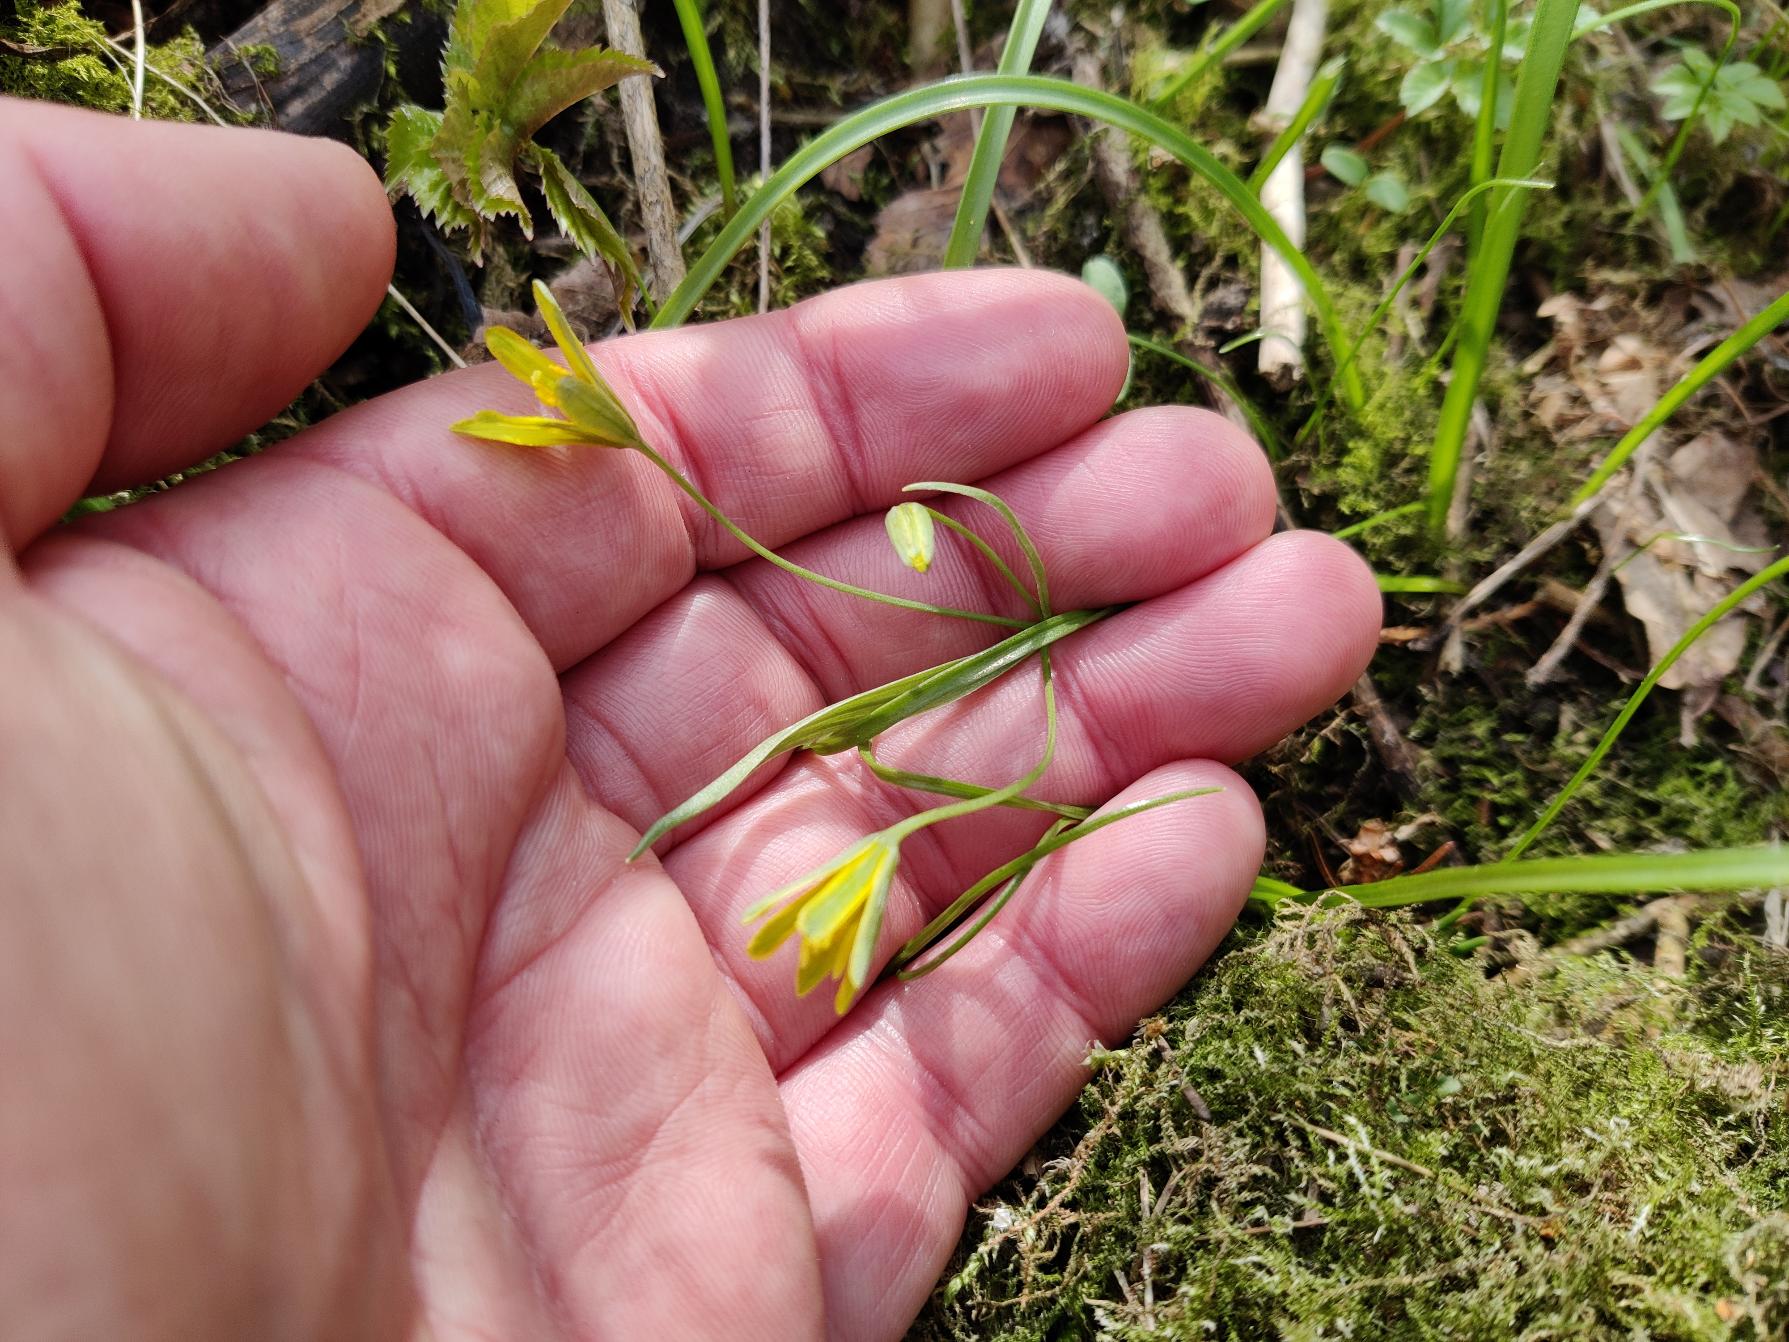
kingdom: Plantae
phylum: Tracheophyta
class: Liliopsida
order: Liliales
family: Liliaceae
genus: Gagea
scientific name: Gagea lutea
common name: Almindelig guldstjerne
